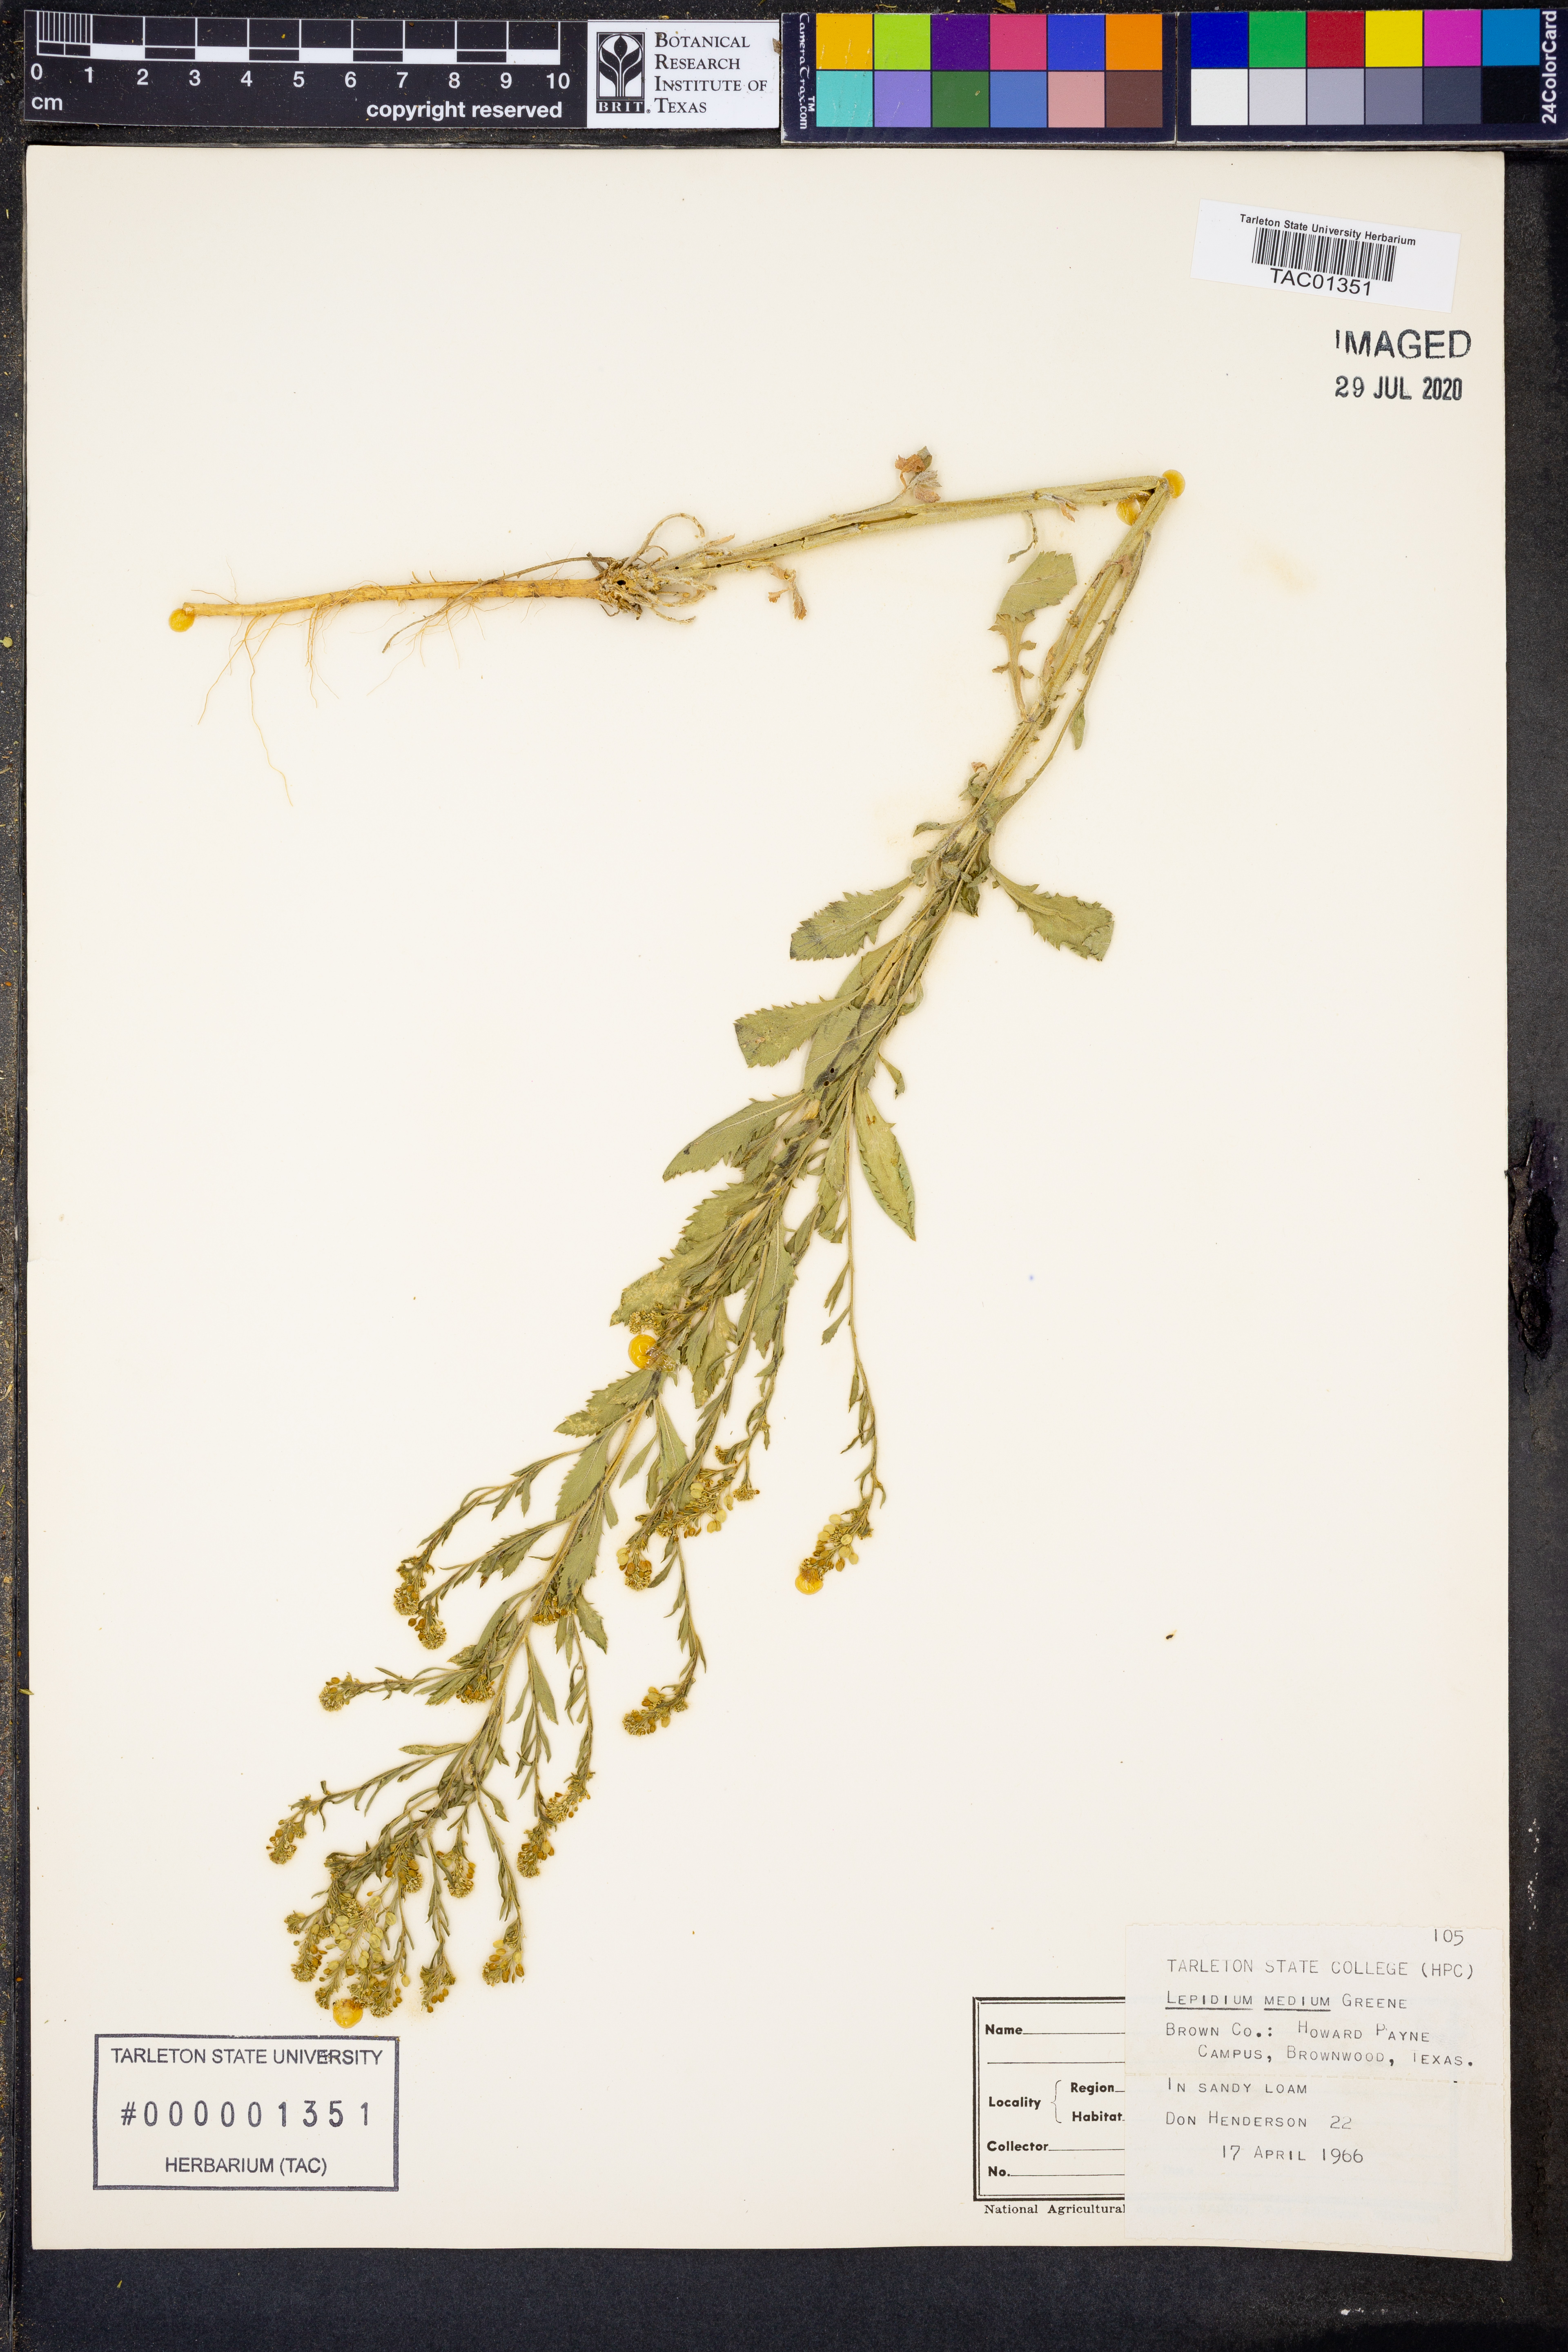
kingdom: Plantae
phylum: Tracheophyta
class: Magnoliopsida
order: Brassicales
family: Brassicaceae
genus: Lepidium
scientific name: Lepidium virginicum
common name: Least pepperwort
